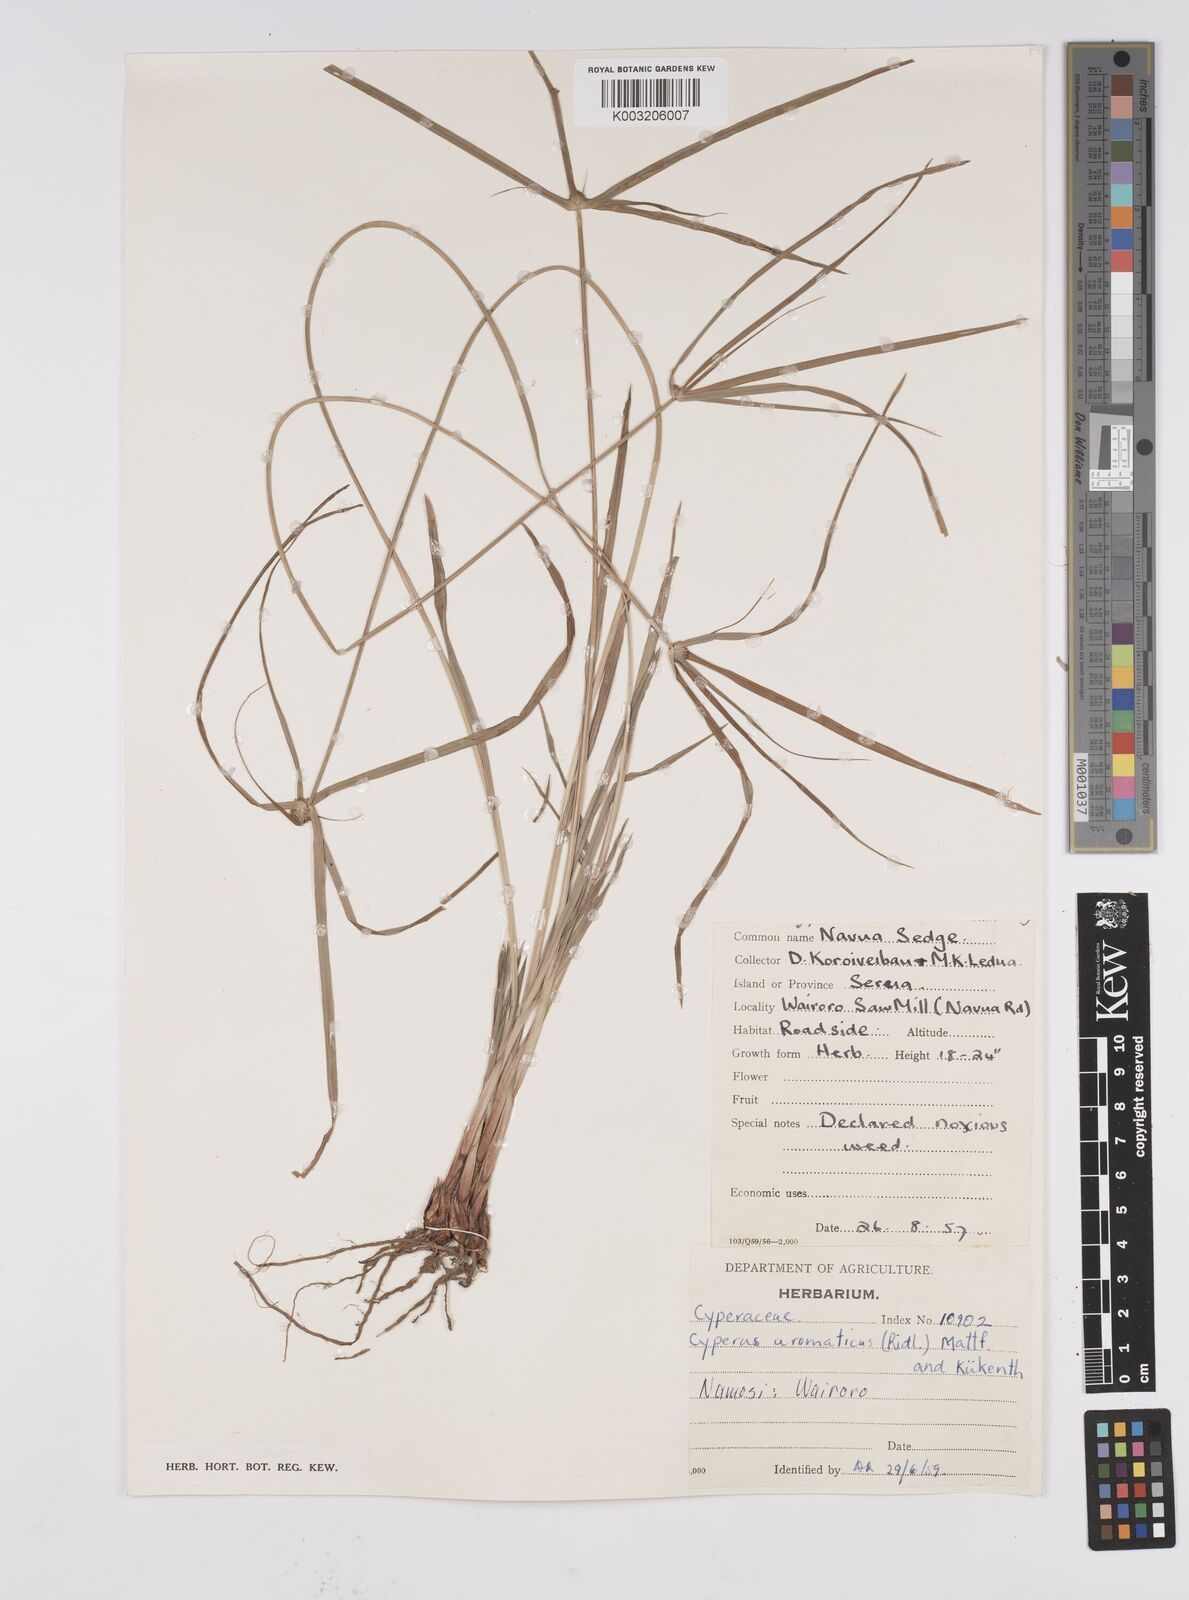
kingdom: Plantae
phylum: Tracheophyta
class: Liliopsida
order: Poales
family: Cyperaceae
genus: Cyperus
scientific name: Cyperus bulbosus
